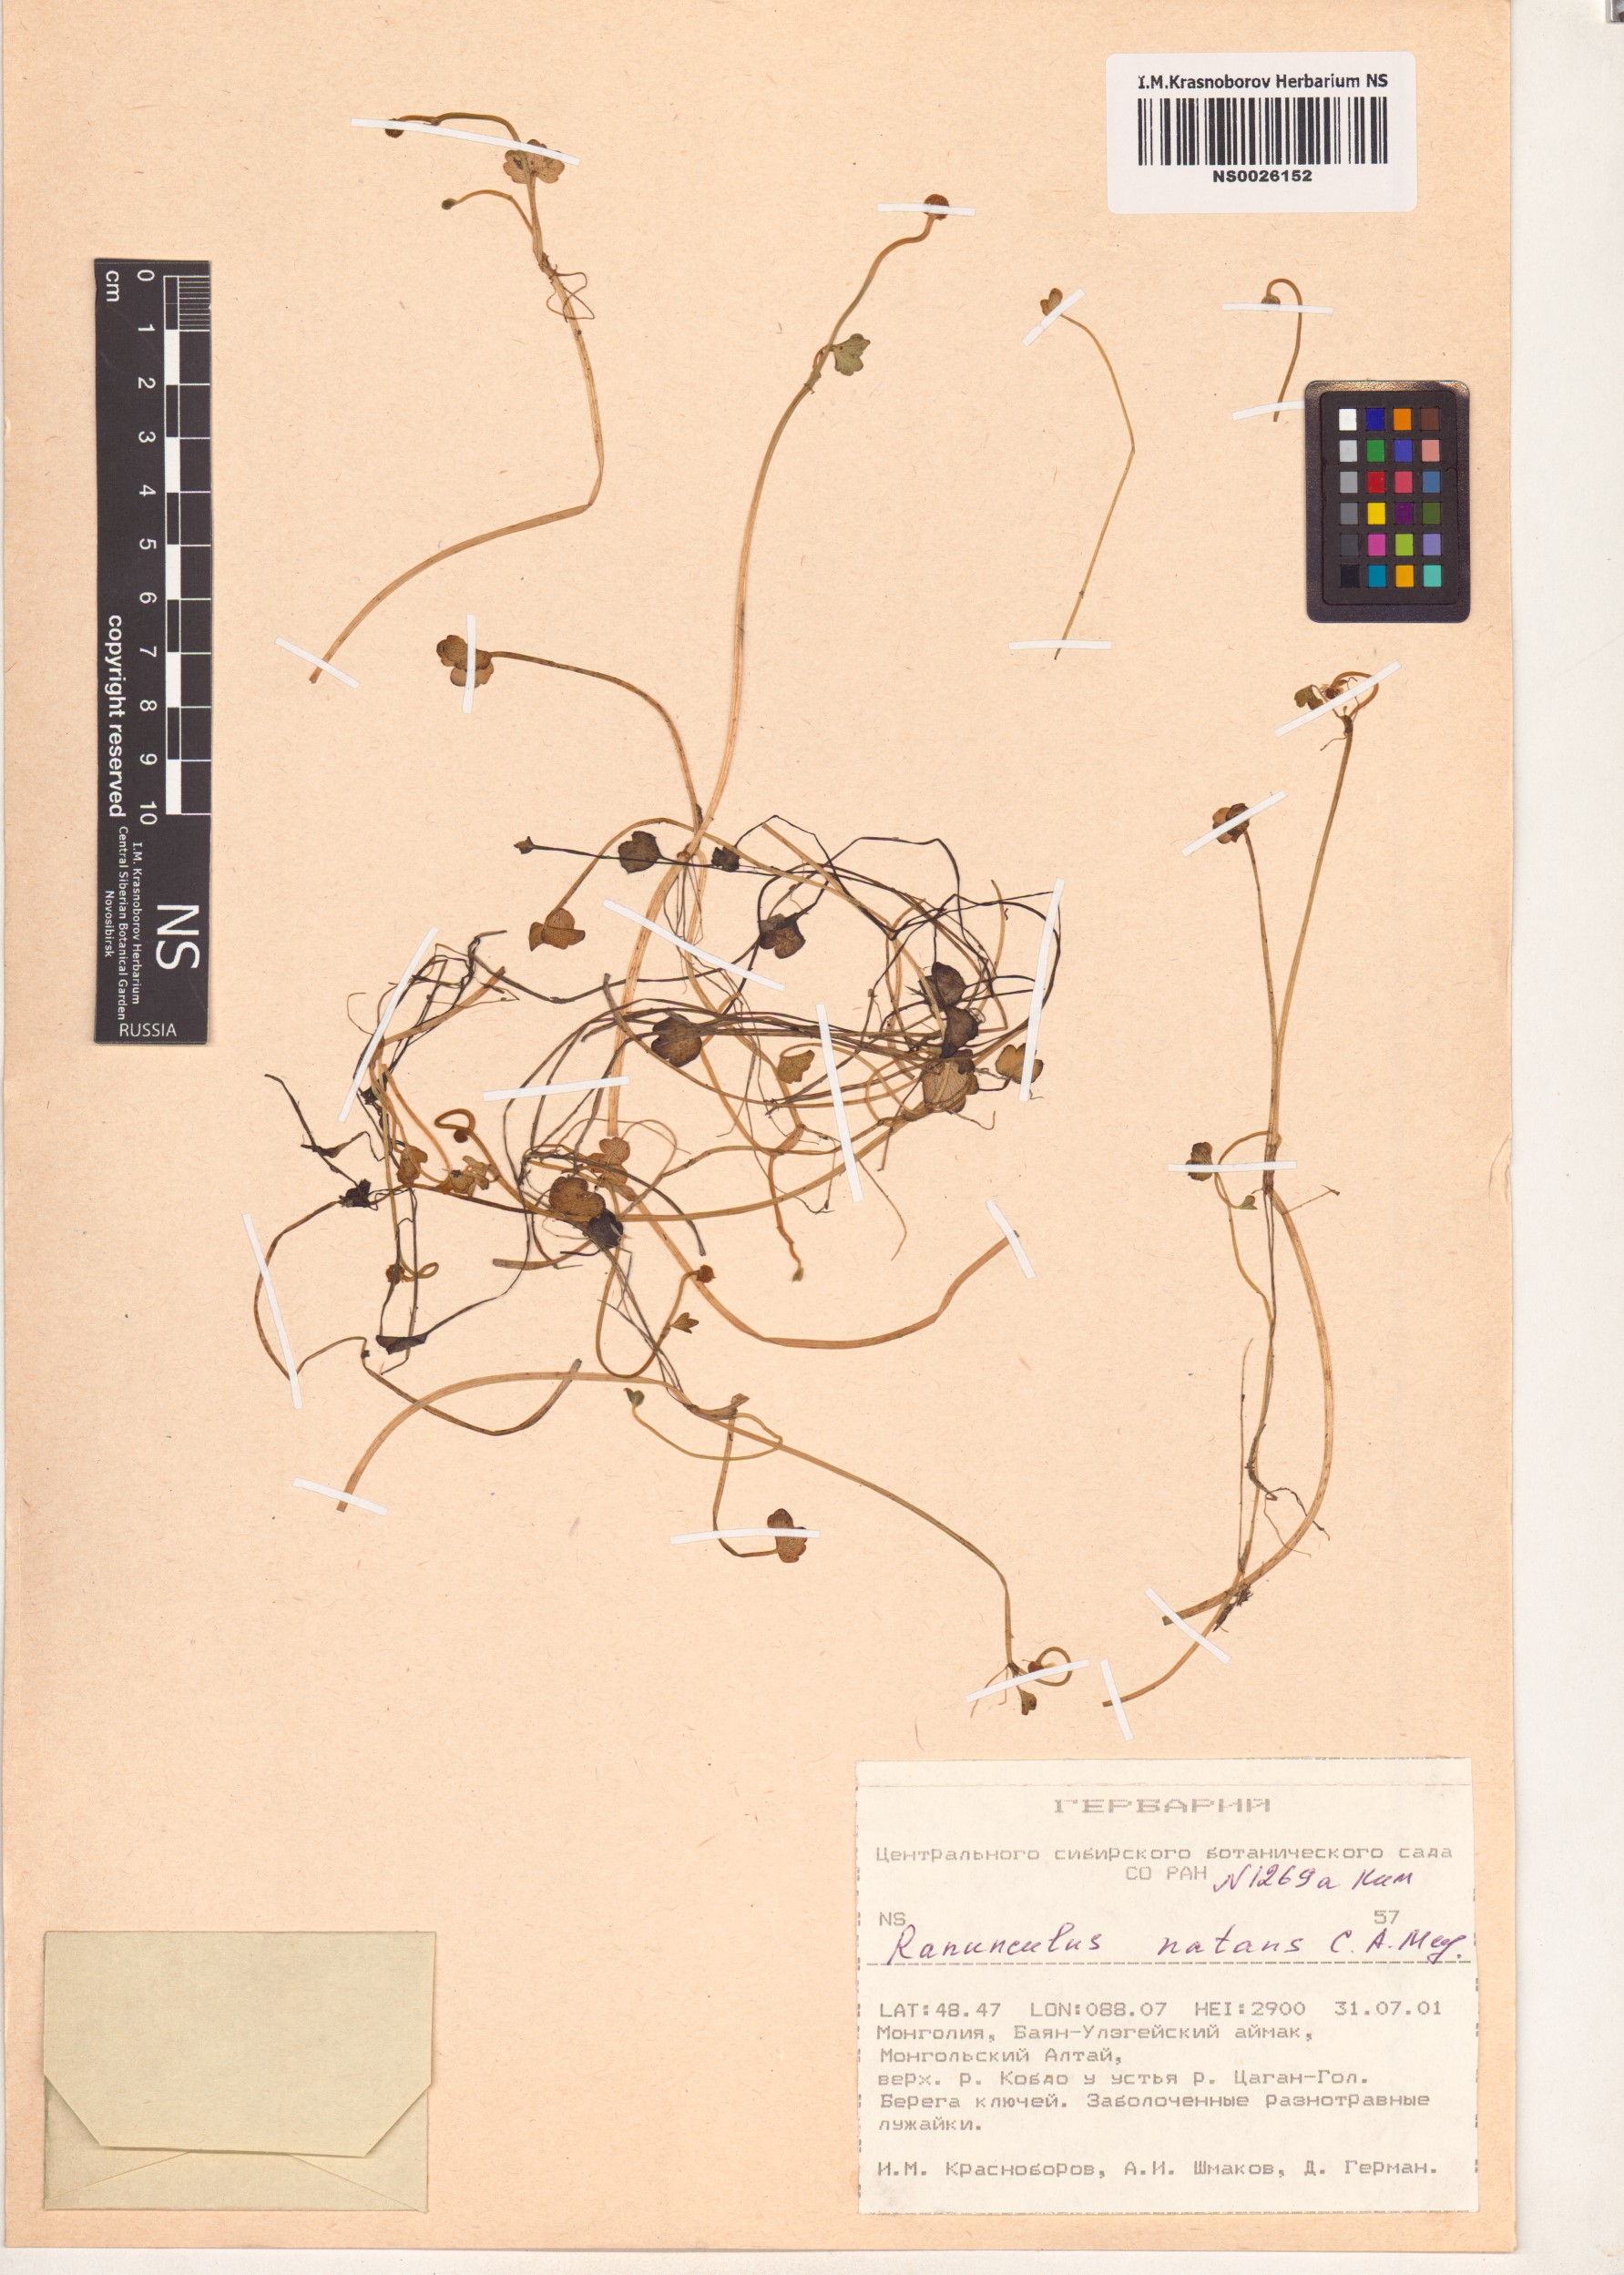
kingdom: Plantae
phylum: Tracheophyta
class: Magnoliopsida
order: Ranunculales
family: Ranunculaceae
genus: Ranunculus
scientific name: Ranunculus natans
